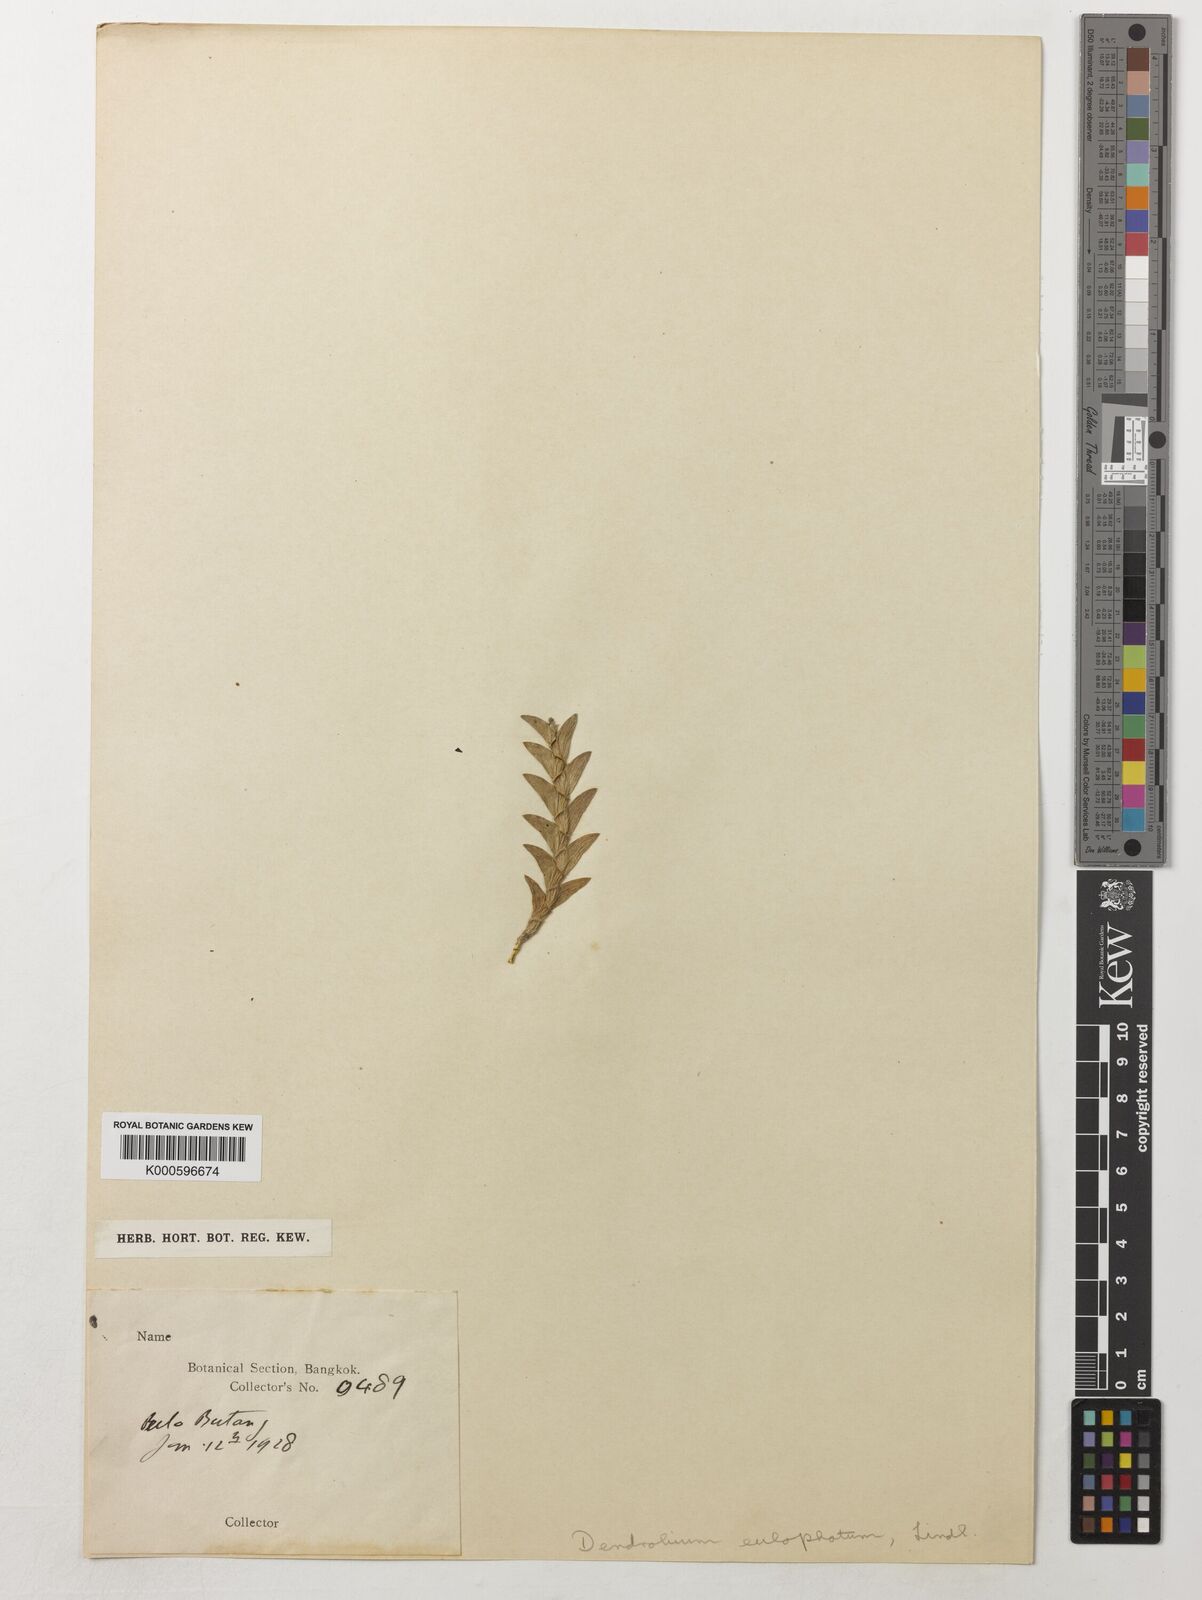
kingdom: Plantae
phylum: Tracheophyta
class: Liliopsida
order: Asparagales
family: Orchidaceae
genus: Dendrobium
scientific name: Dendrobium indivisum
